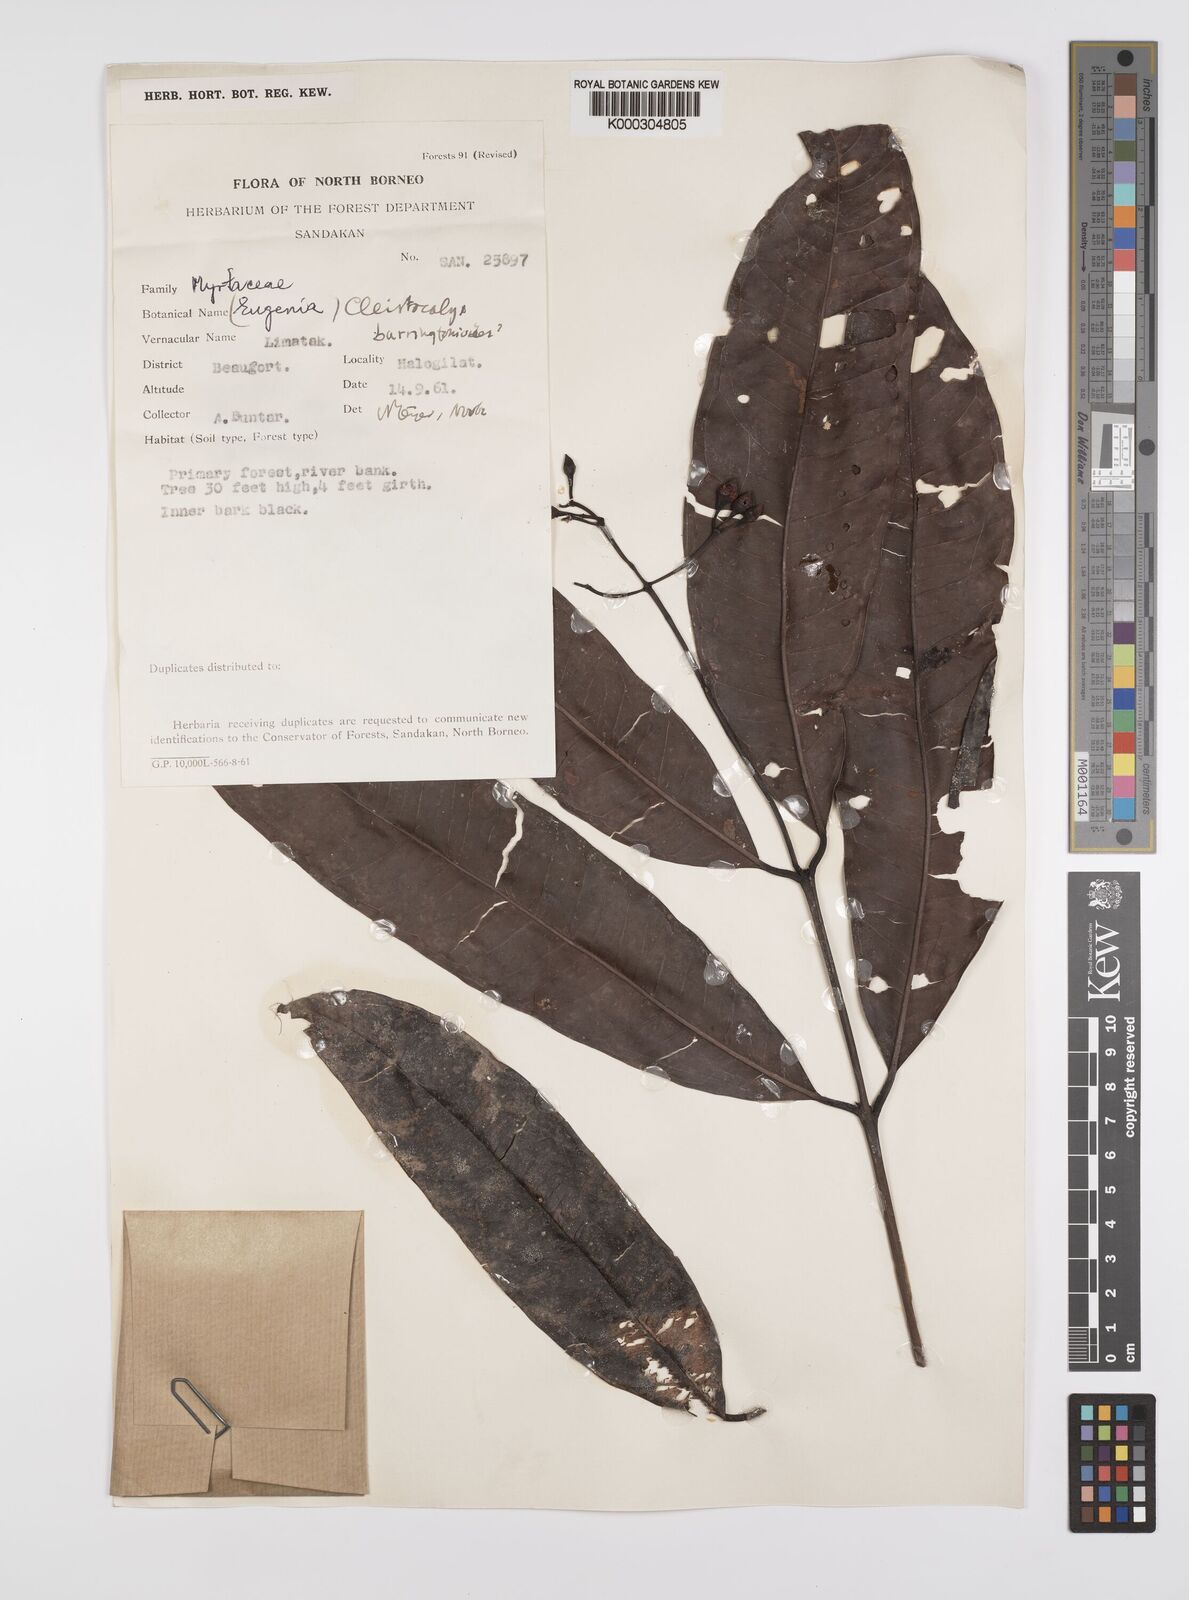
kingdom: Plantae
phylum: Tracheophyta
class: Magnoliopsida
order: Myrtales
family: Myrtaceae
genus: Syzygium
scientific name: Syzygium barringtonioides
